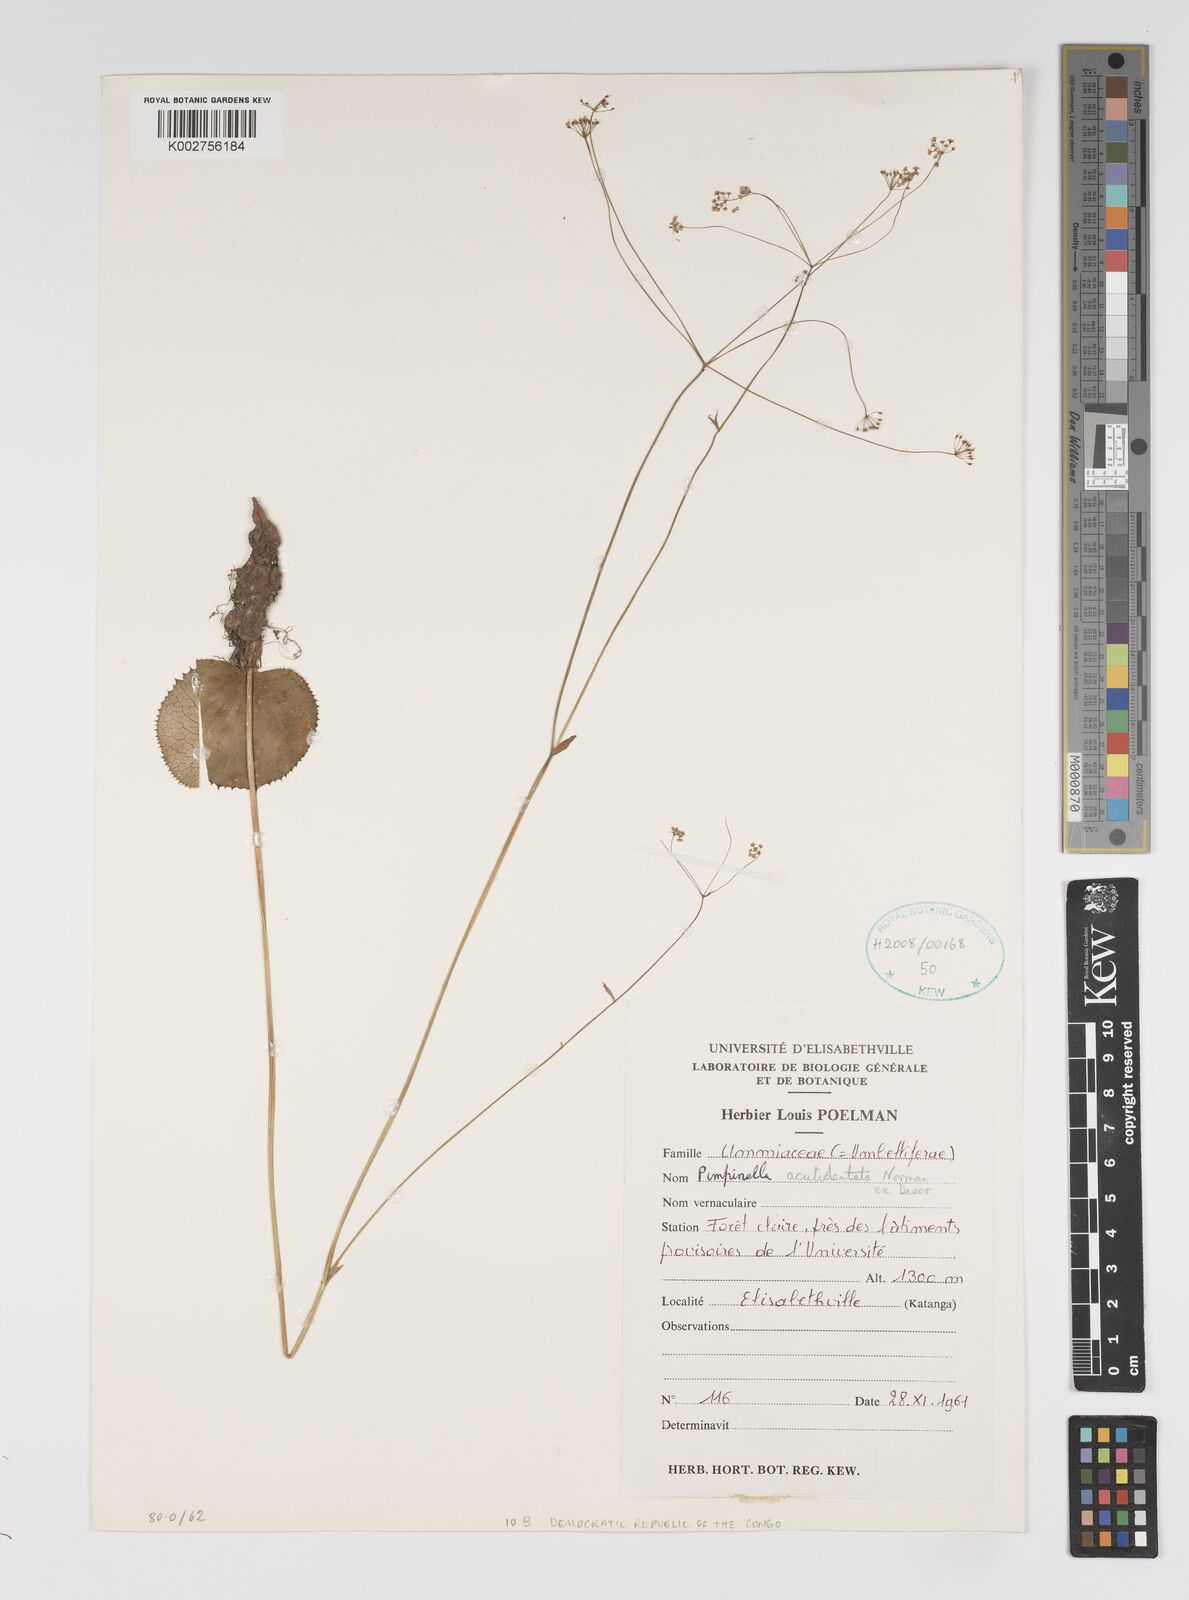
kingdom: Plantae
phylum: Tracheophyta
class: Magnoliopsida
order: Apiales
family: Apiaceae
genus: Pimpinella
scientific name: Pimpinella acutidentata
